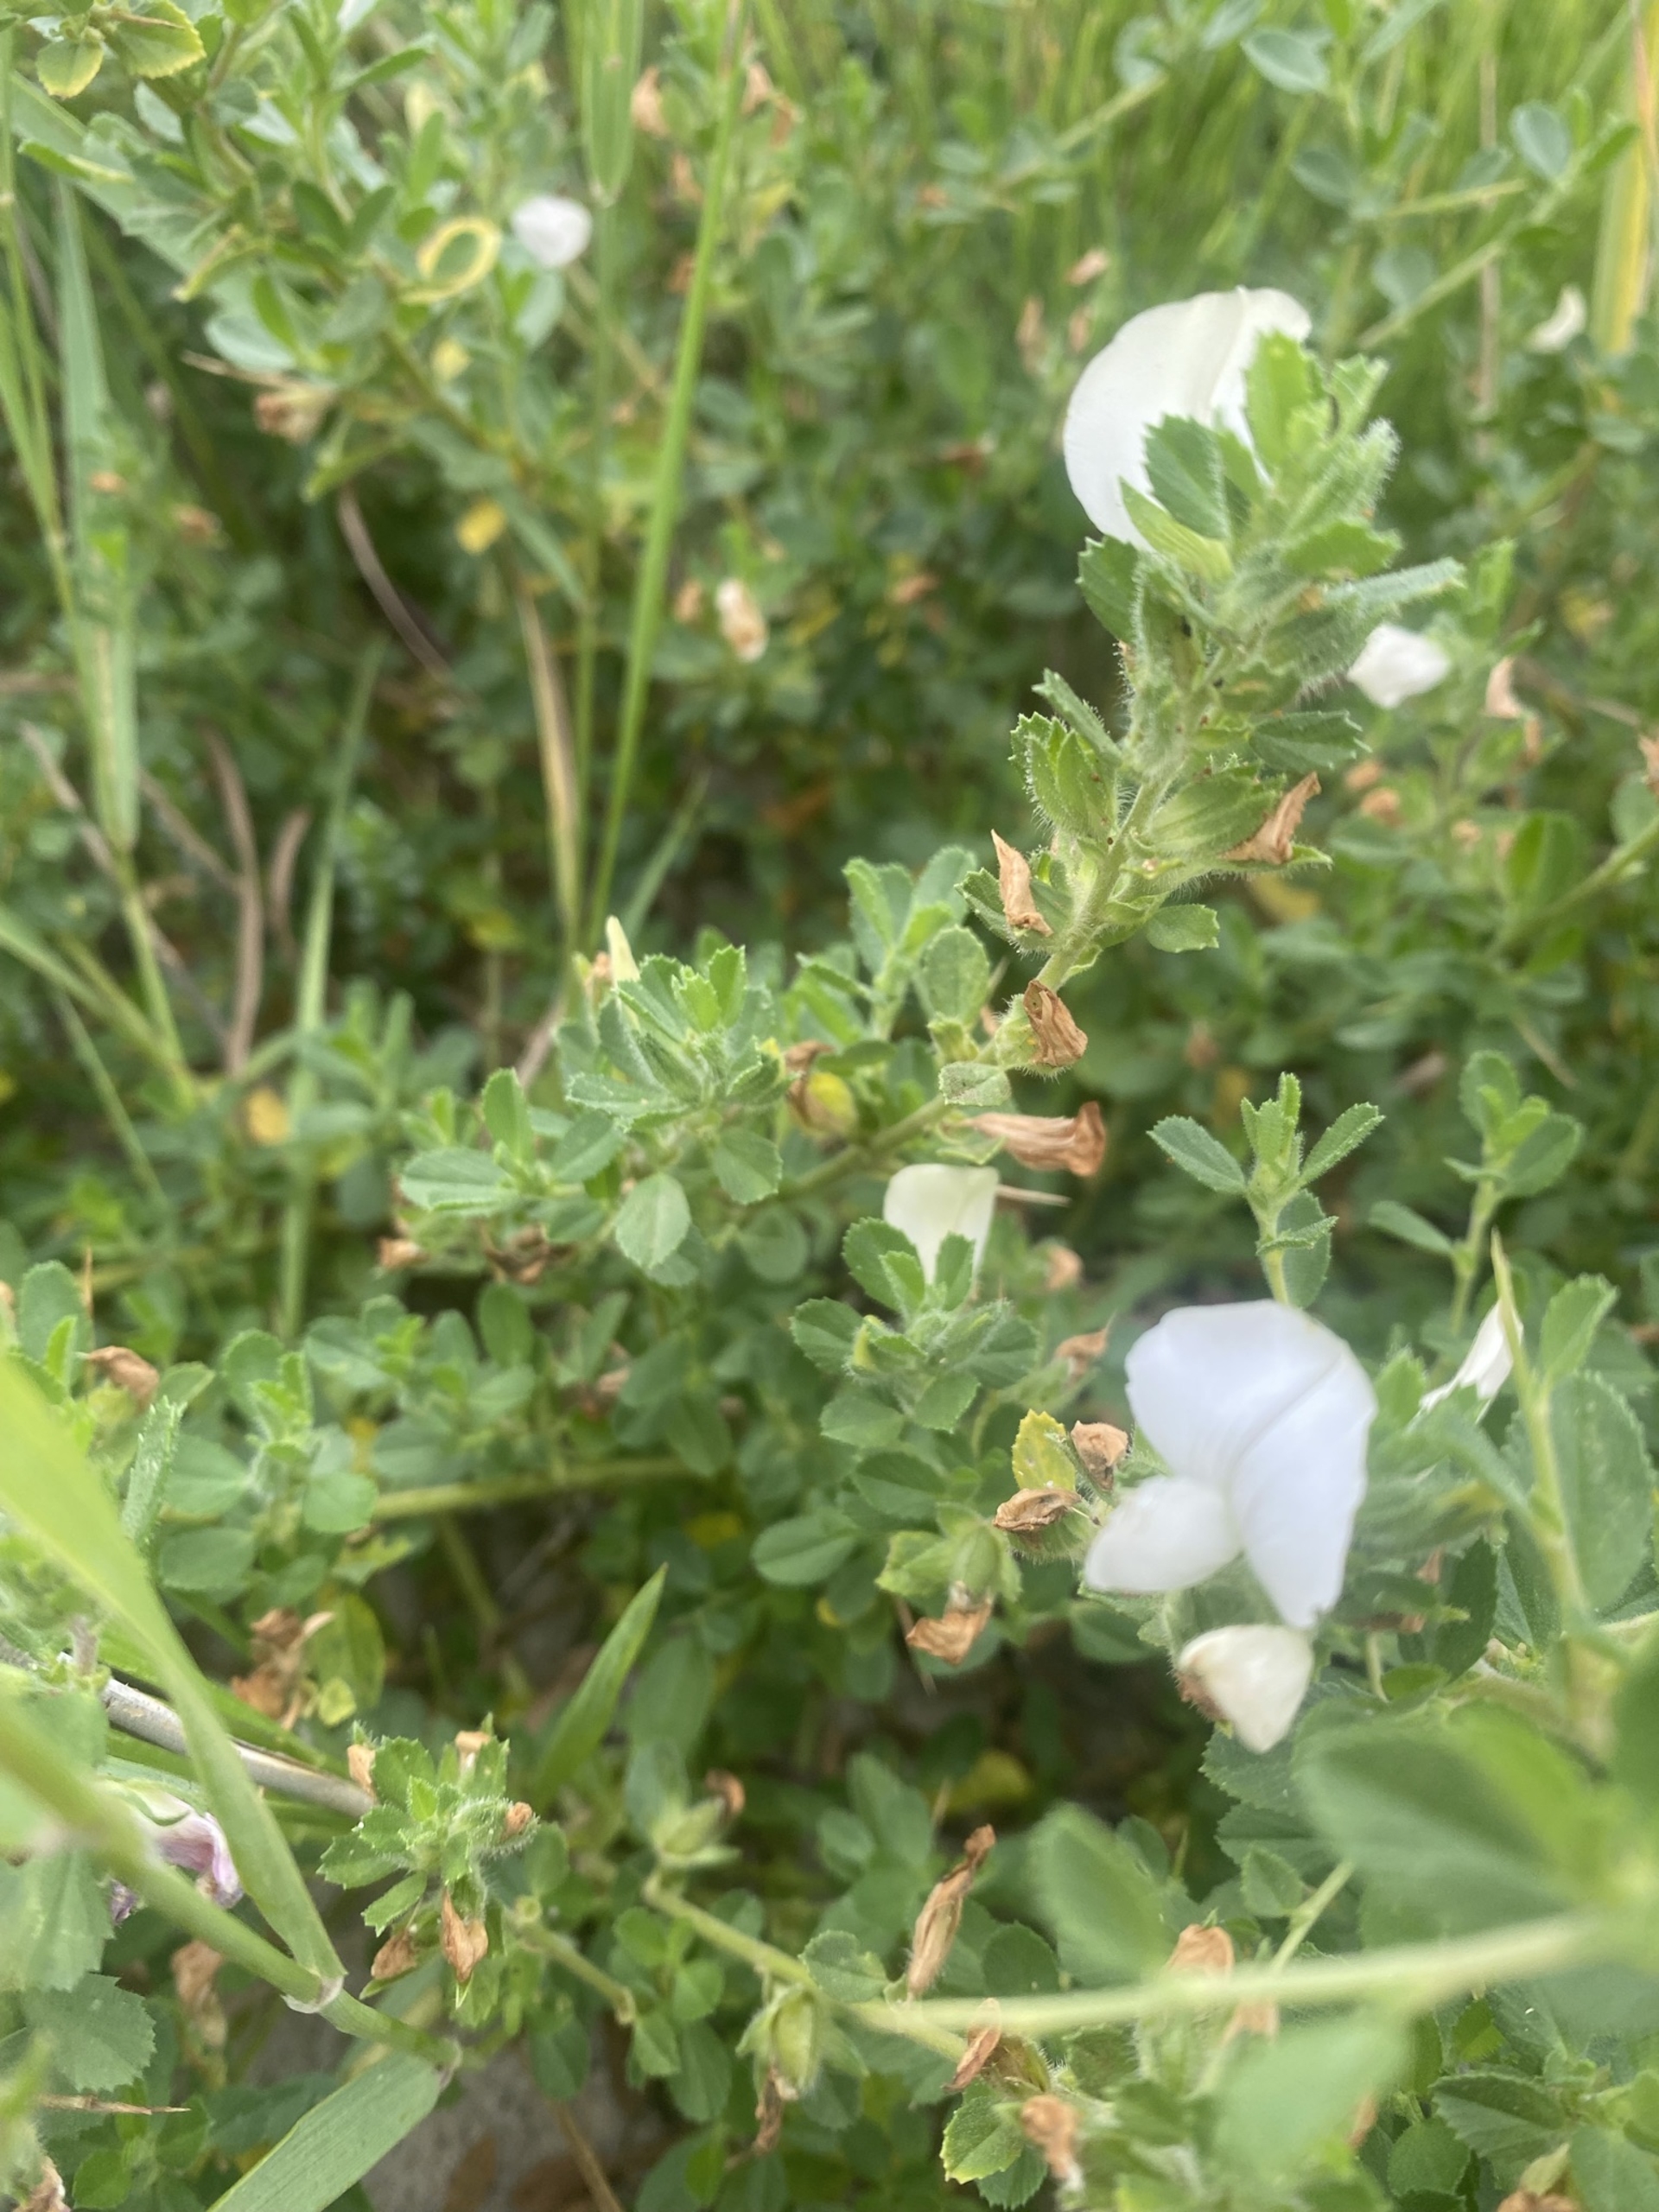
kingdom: Plantae
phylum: Tracheophyta
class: Magnoliopsida
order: Fabales
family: Fabaceae
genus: Ononis
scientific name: Ononis spinosa
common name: Mark-krageklo
